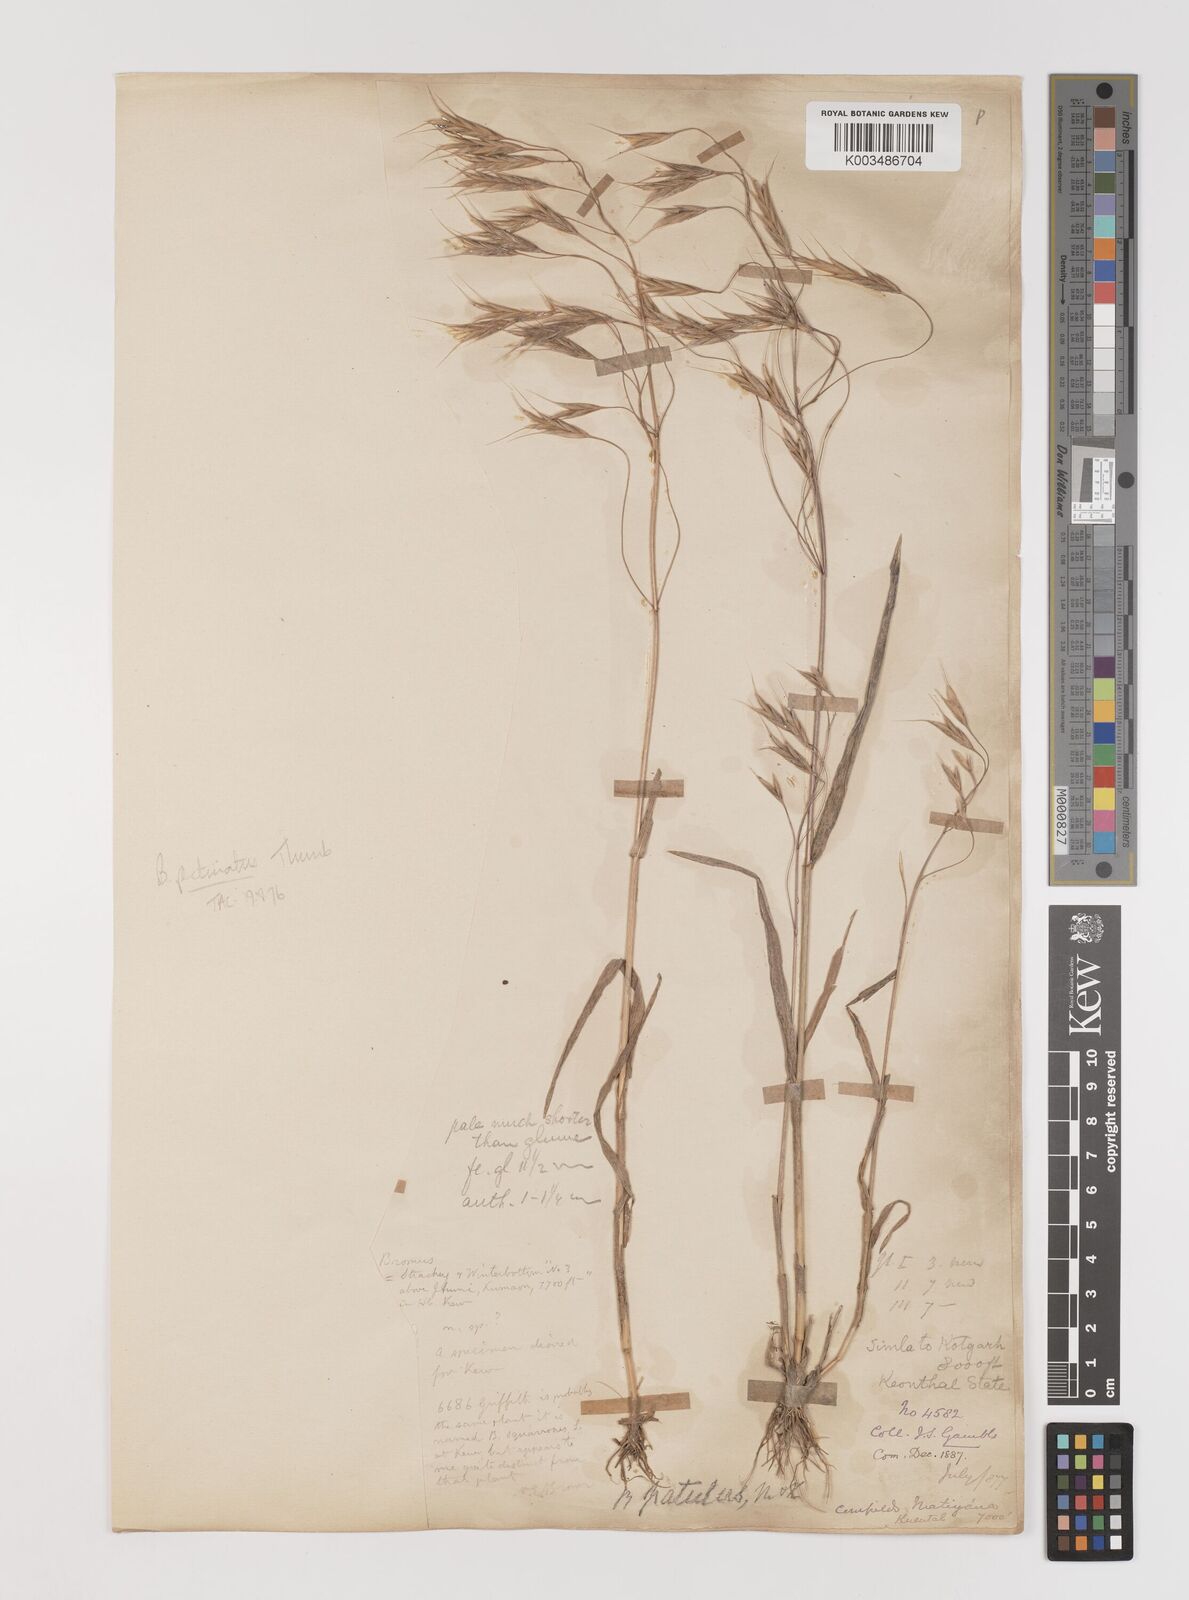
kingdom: Plantae
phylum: Tracheophyta
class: Liliopsida
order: Poales
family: Poaceae
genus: Bromus
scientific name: Bromus pectinatus
